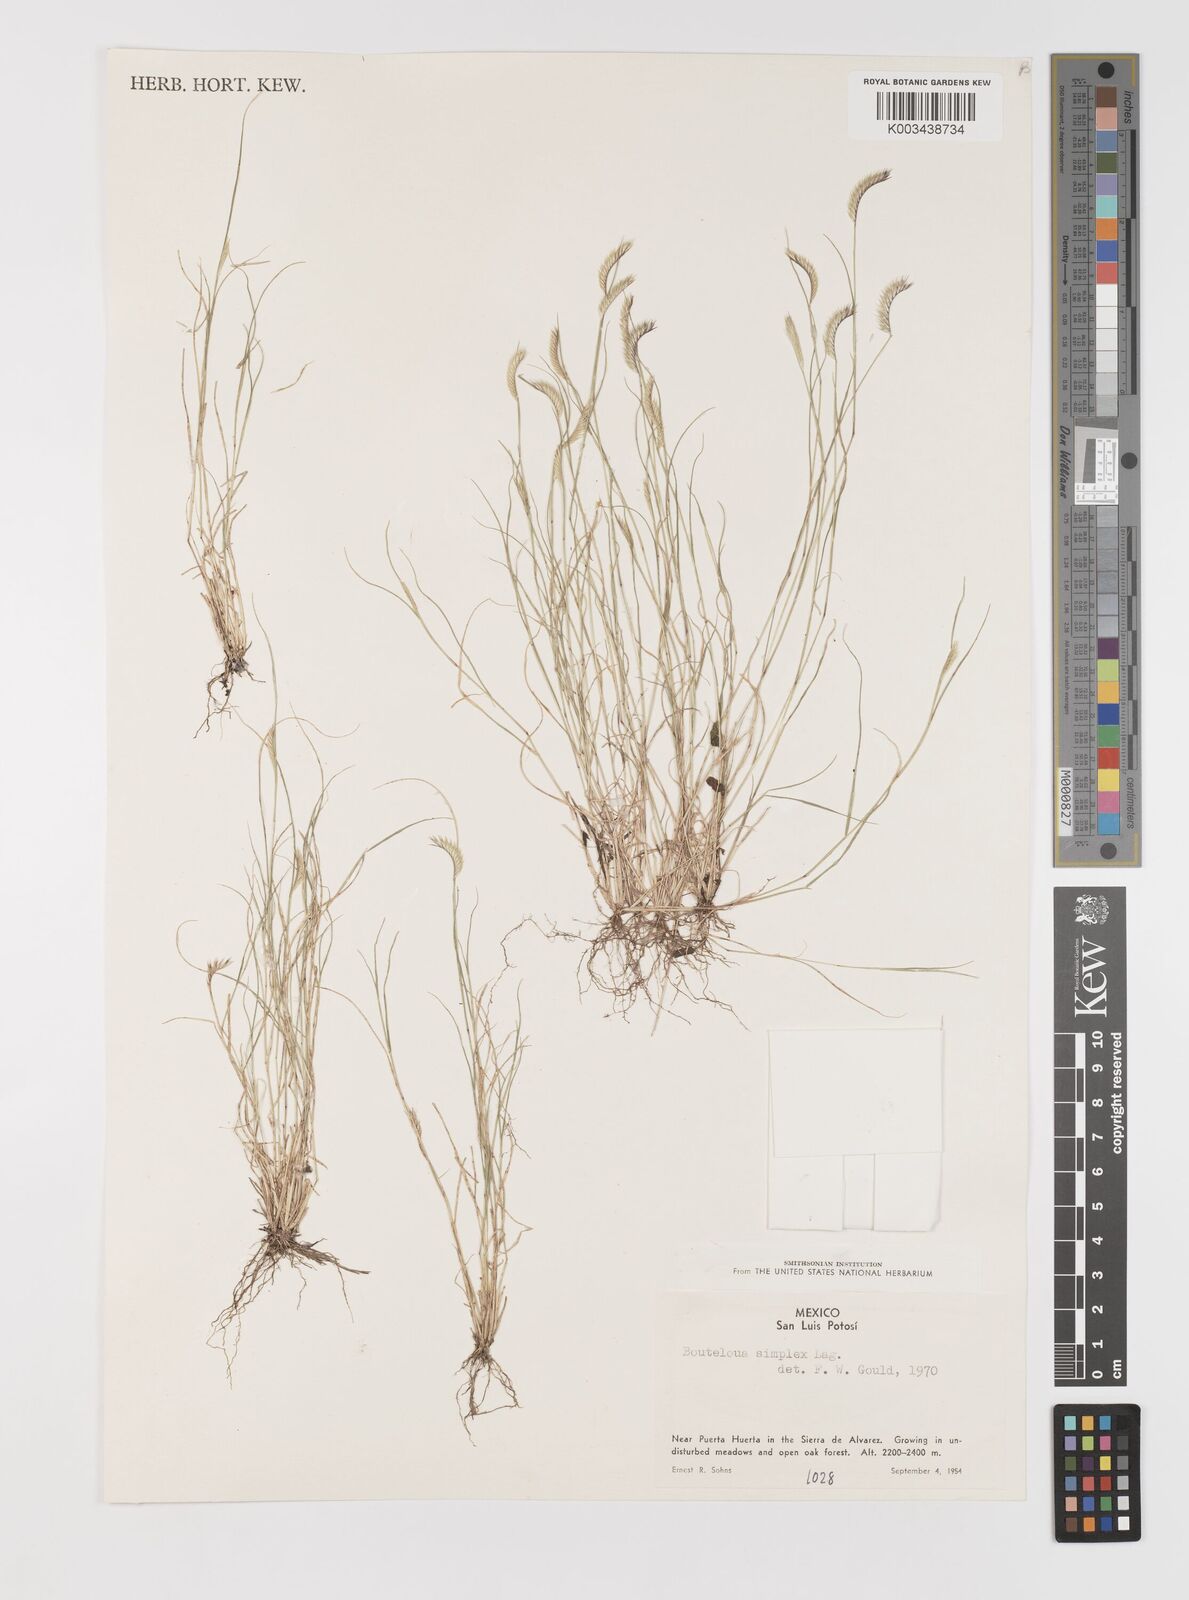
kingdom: Plantae
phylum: Tracheophyta
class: Liliopsida
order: Poales
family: Poaceae
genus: Bouteloua
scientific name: Bouteloua simplex
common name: Mat grama
